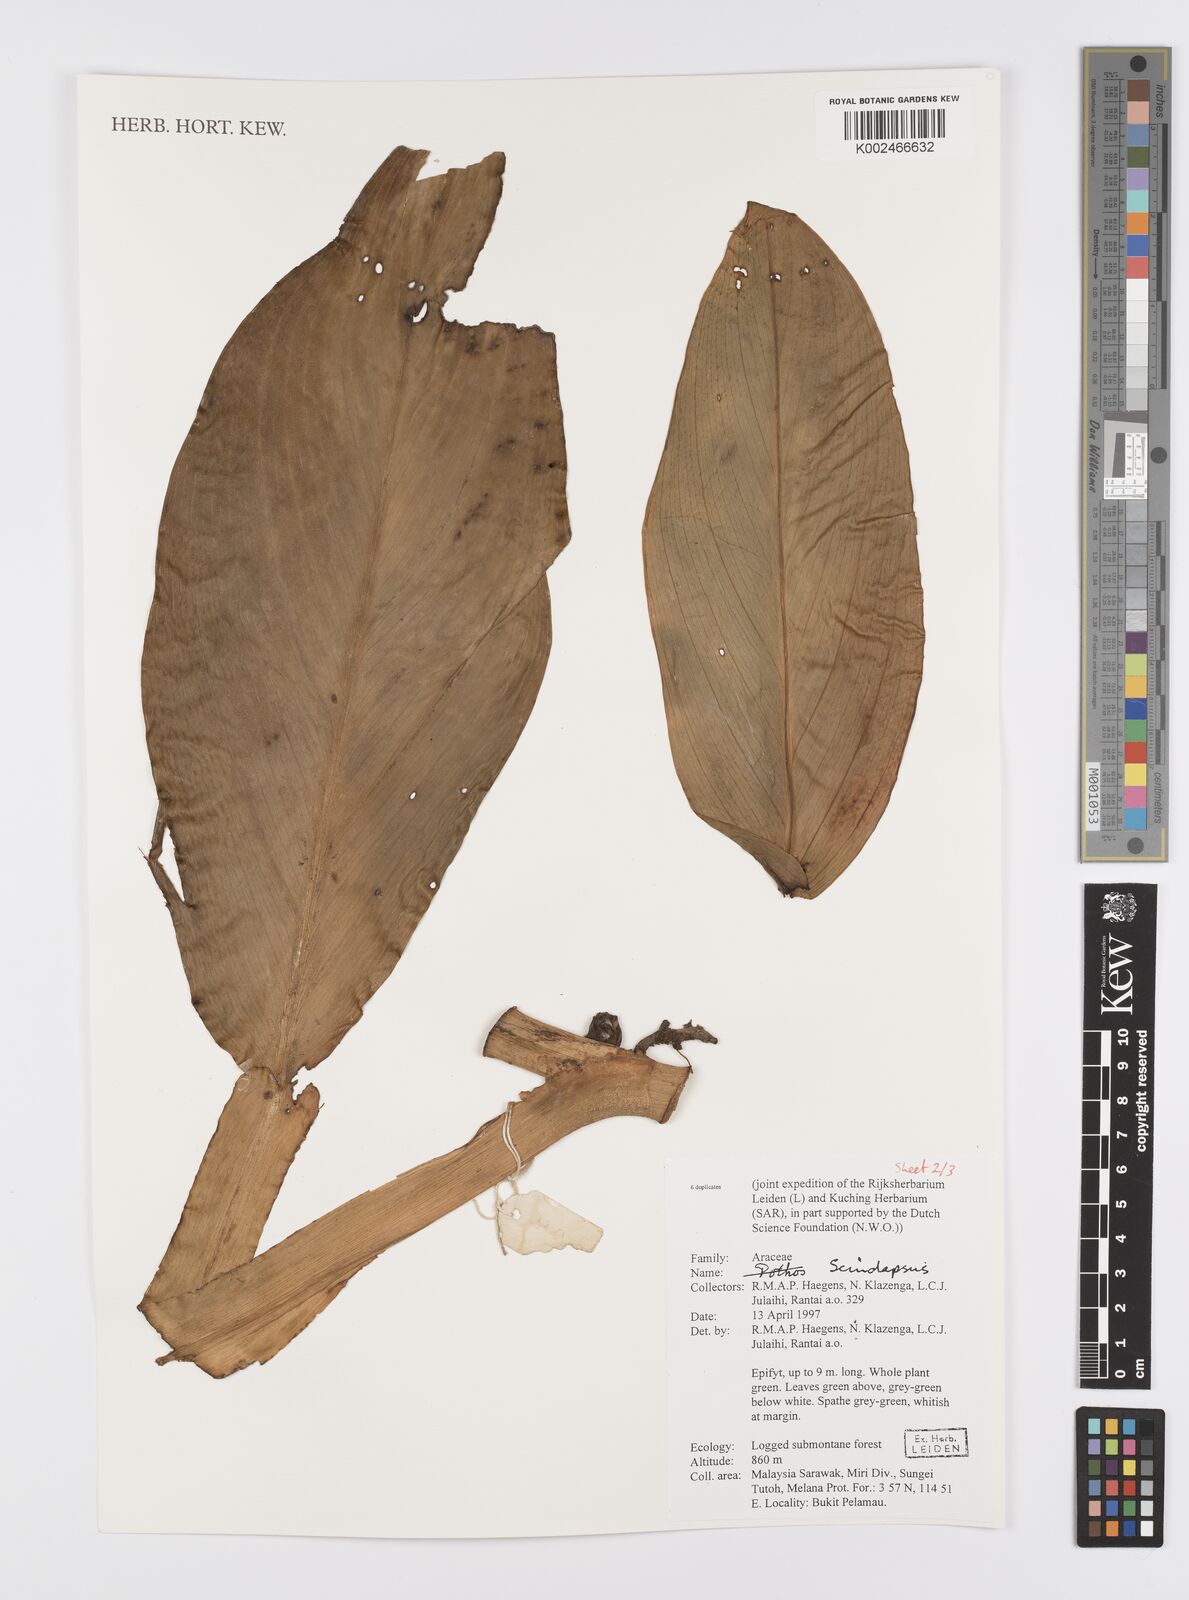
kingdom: Plantae
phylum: Tracheophyta
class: Liliopsida
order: Alismatales
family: Araceae
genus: Scindapsus
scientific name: Scindapsus
